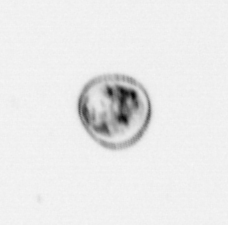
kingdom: Chromista
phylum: Myzozoa
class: Dinophyceae
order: Noctilucales
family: Noctilucaceae
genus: Noctiluca
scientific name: Noctiluca scintillans
